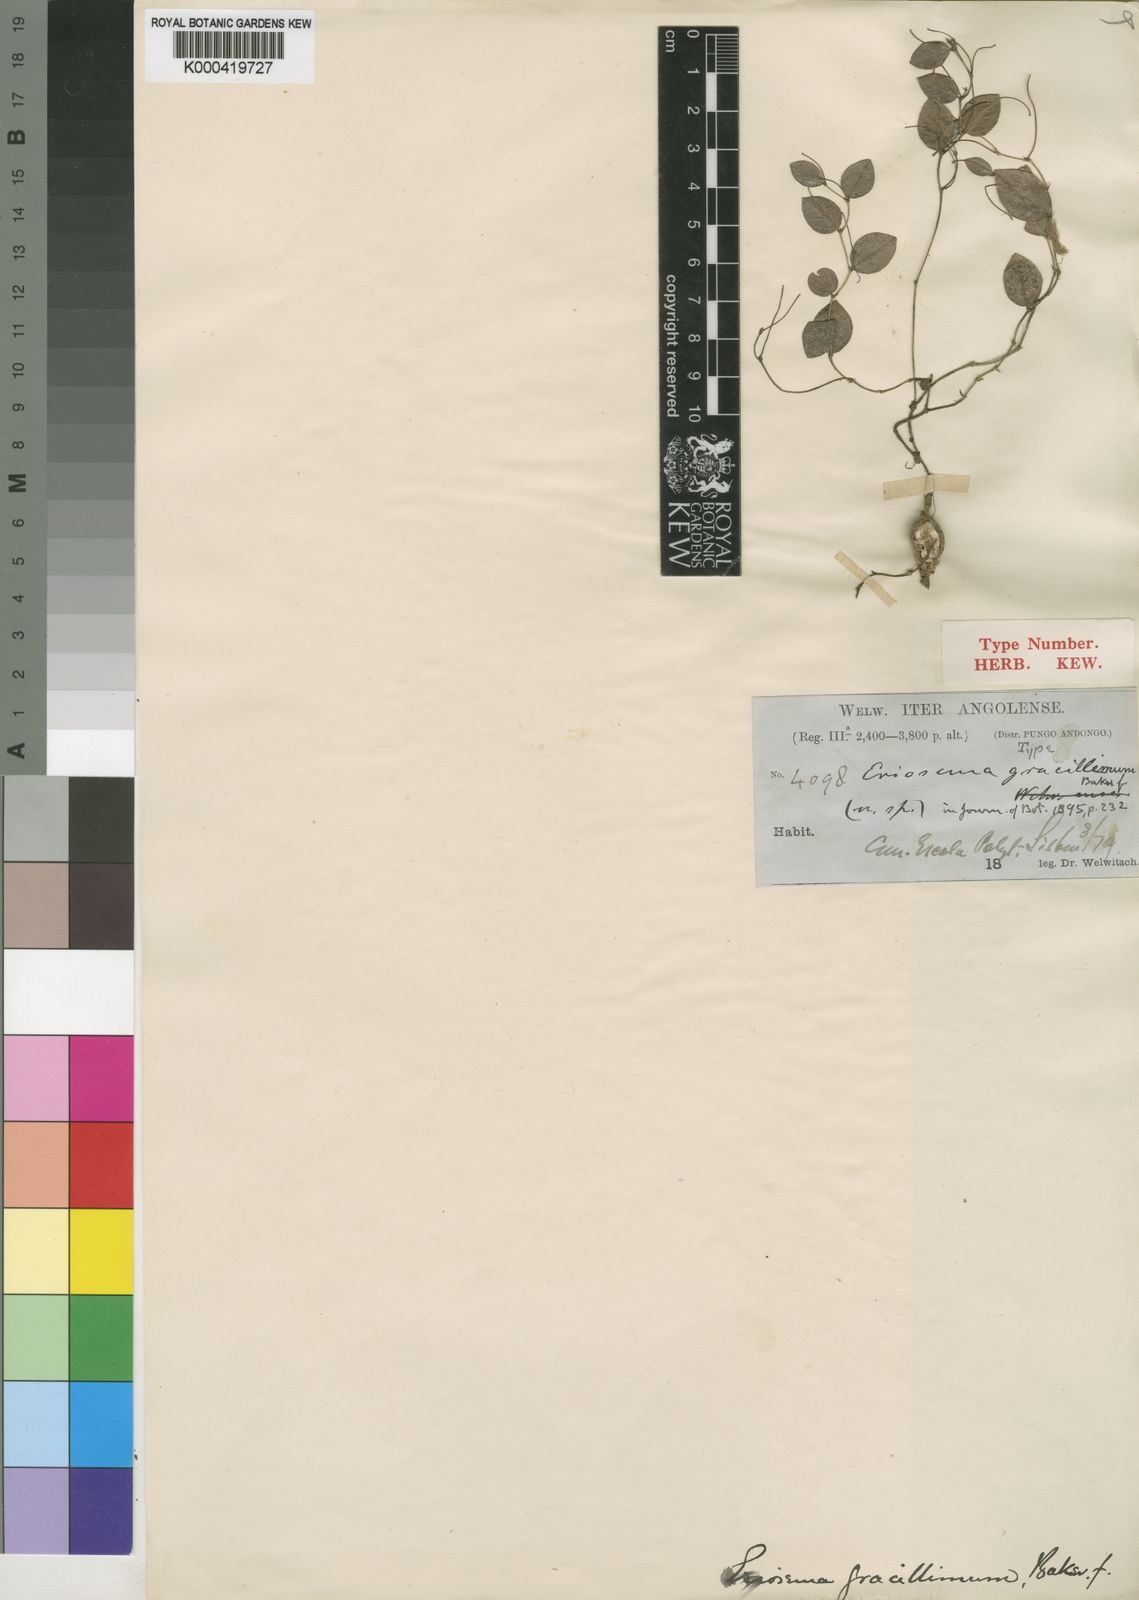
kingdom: Plantae
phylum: Tracheophyta
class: Magnoliopsida
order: Fabales
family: Fabaceae
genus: Eriosema
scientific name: Eriosema gracillimum
